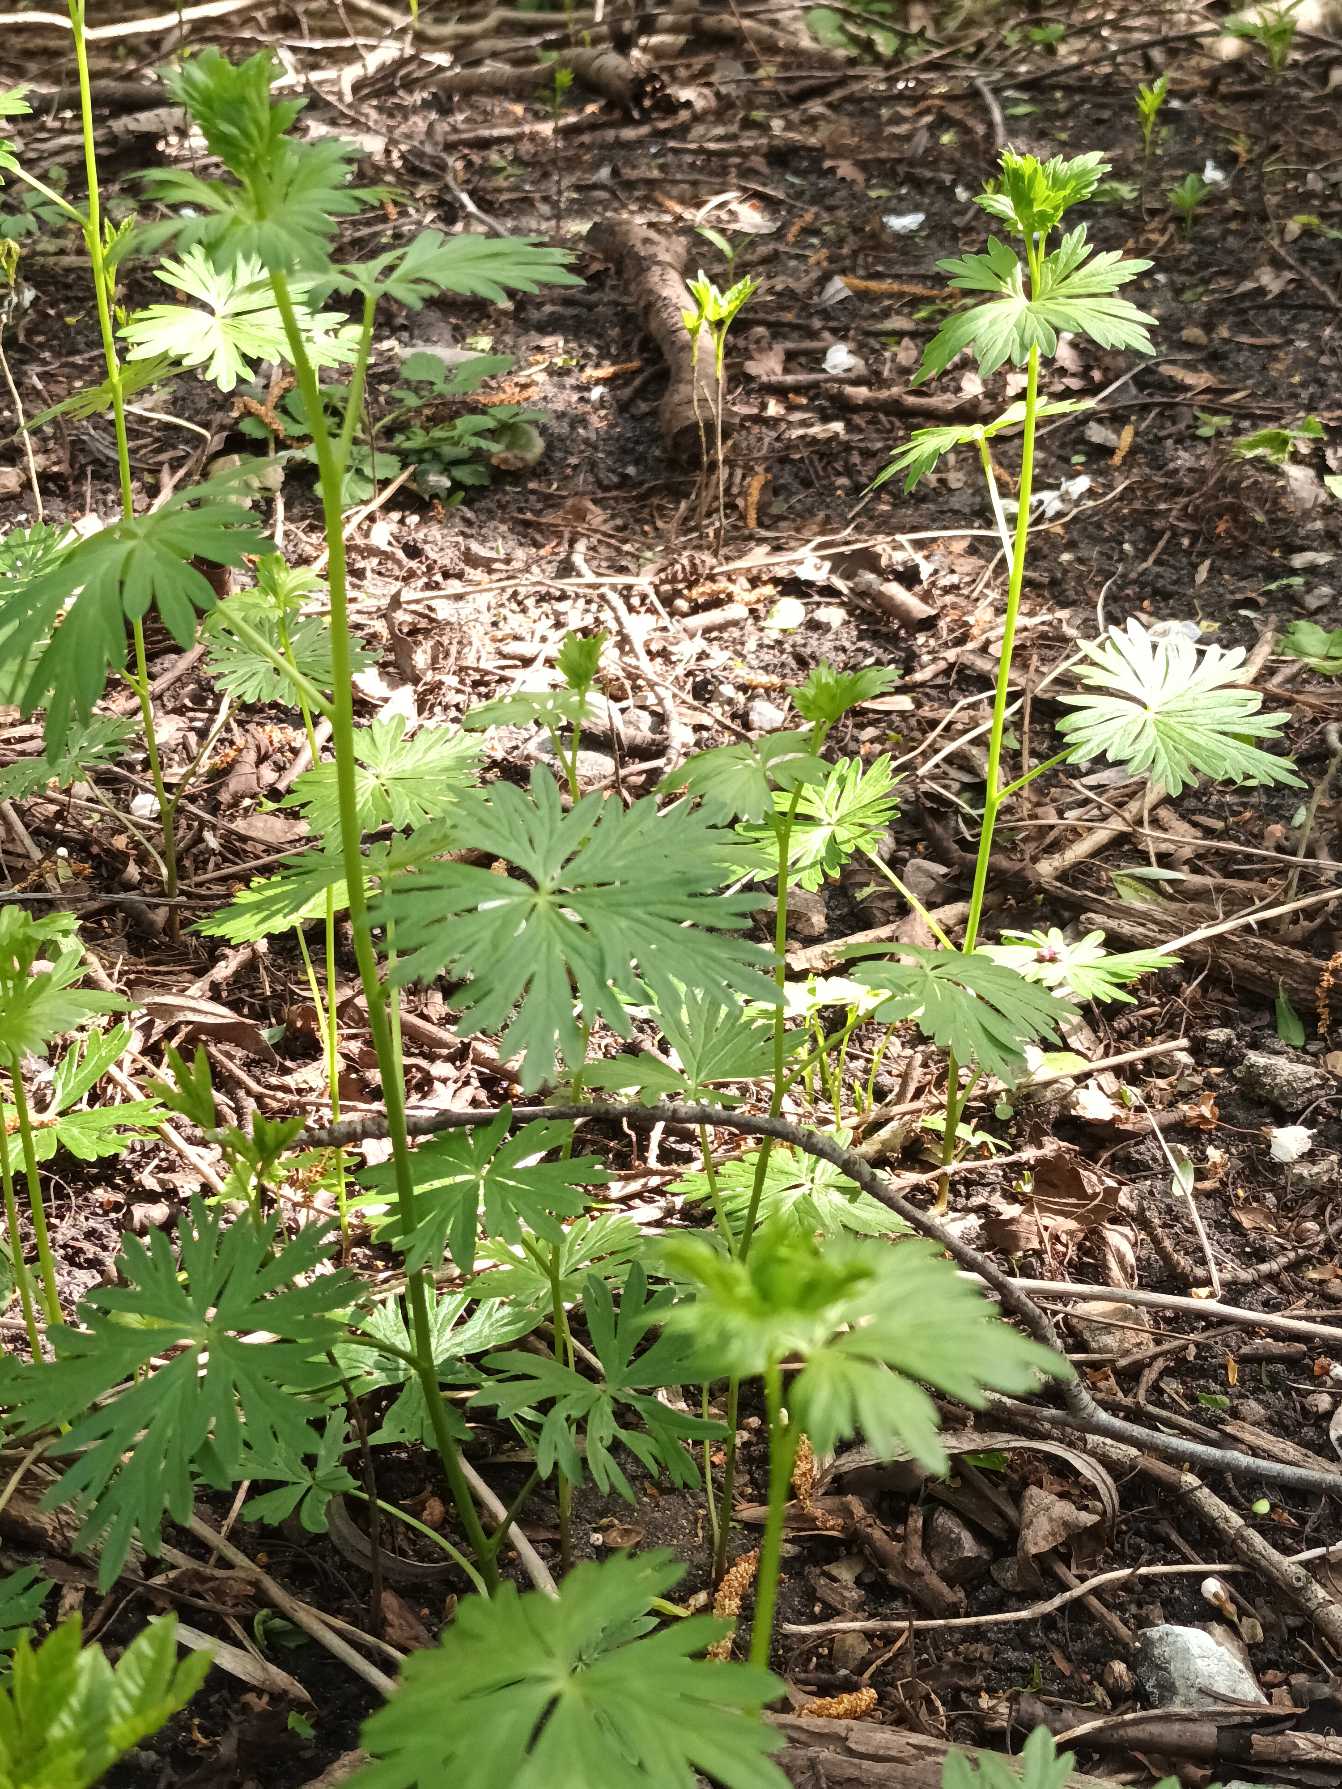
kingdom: Plantae
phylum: Tracheophyta
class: Magnoliopsida
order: Ranunculales
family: Ranunculaceae
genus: Aconitum
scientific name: Aconitum cammarum
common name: Have-stormhat
